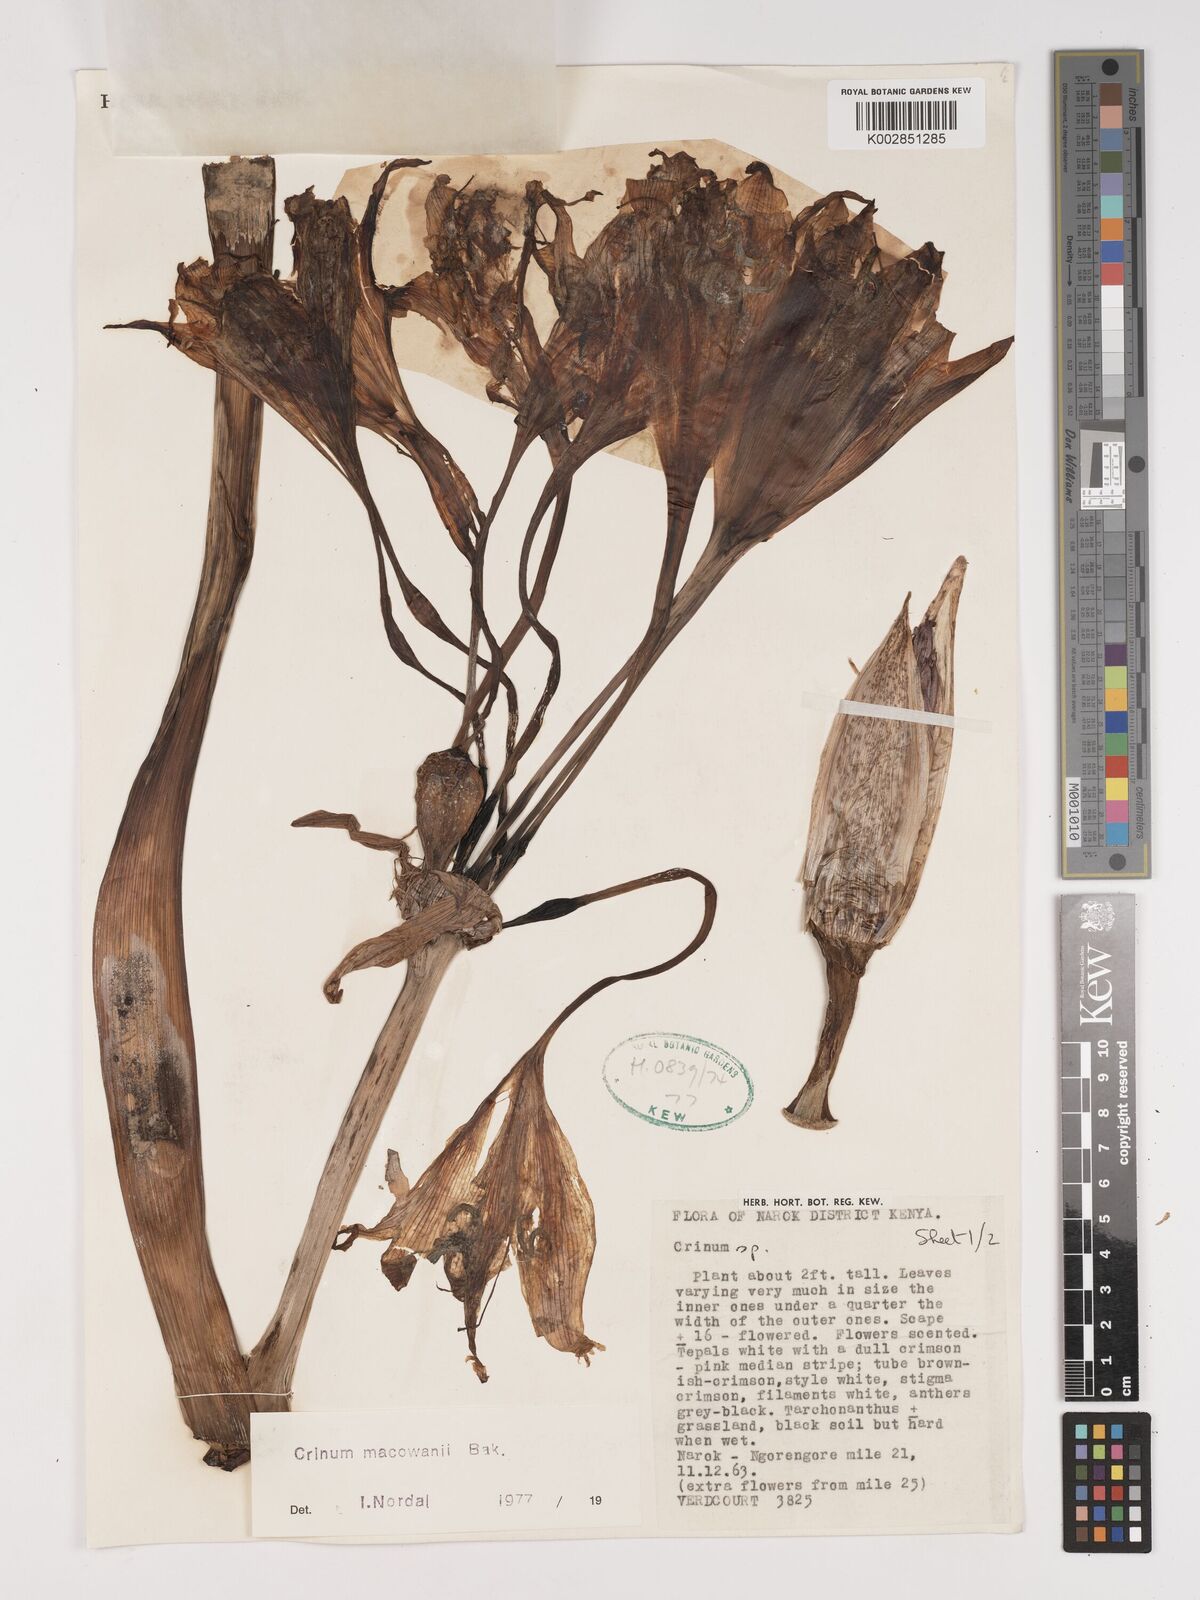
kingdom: Plantae
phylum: Tracheophyta
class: Liliopsida
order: Asparagales
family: Amaryllidaceae
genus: Crinum
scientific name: Crinum macowanii
